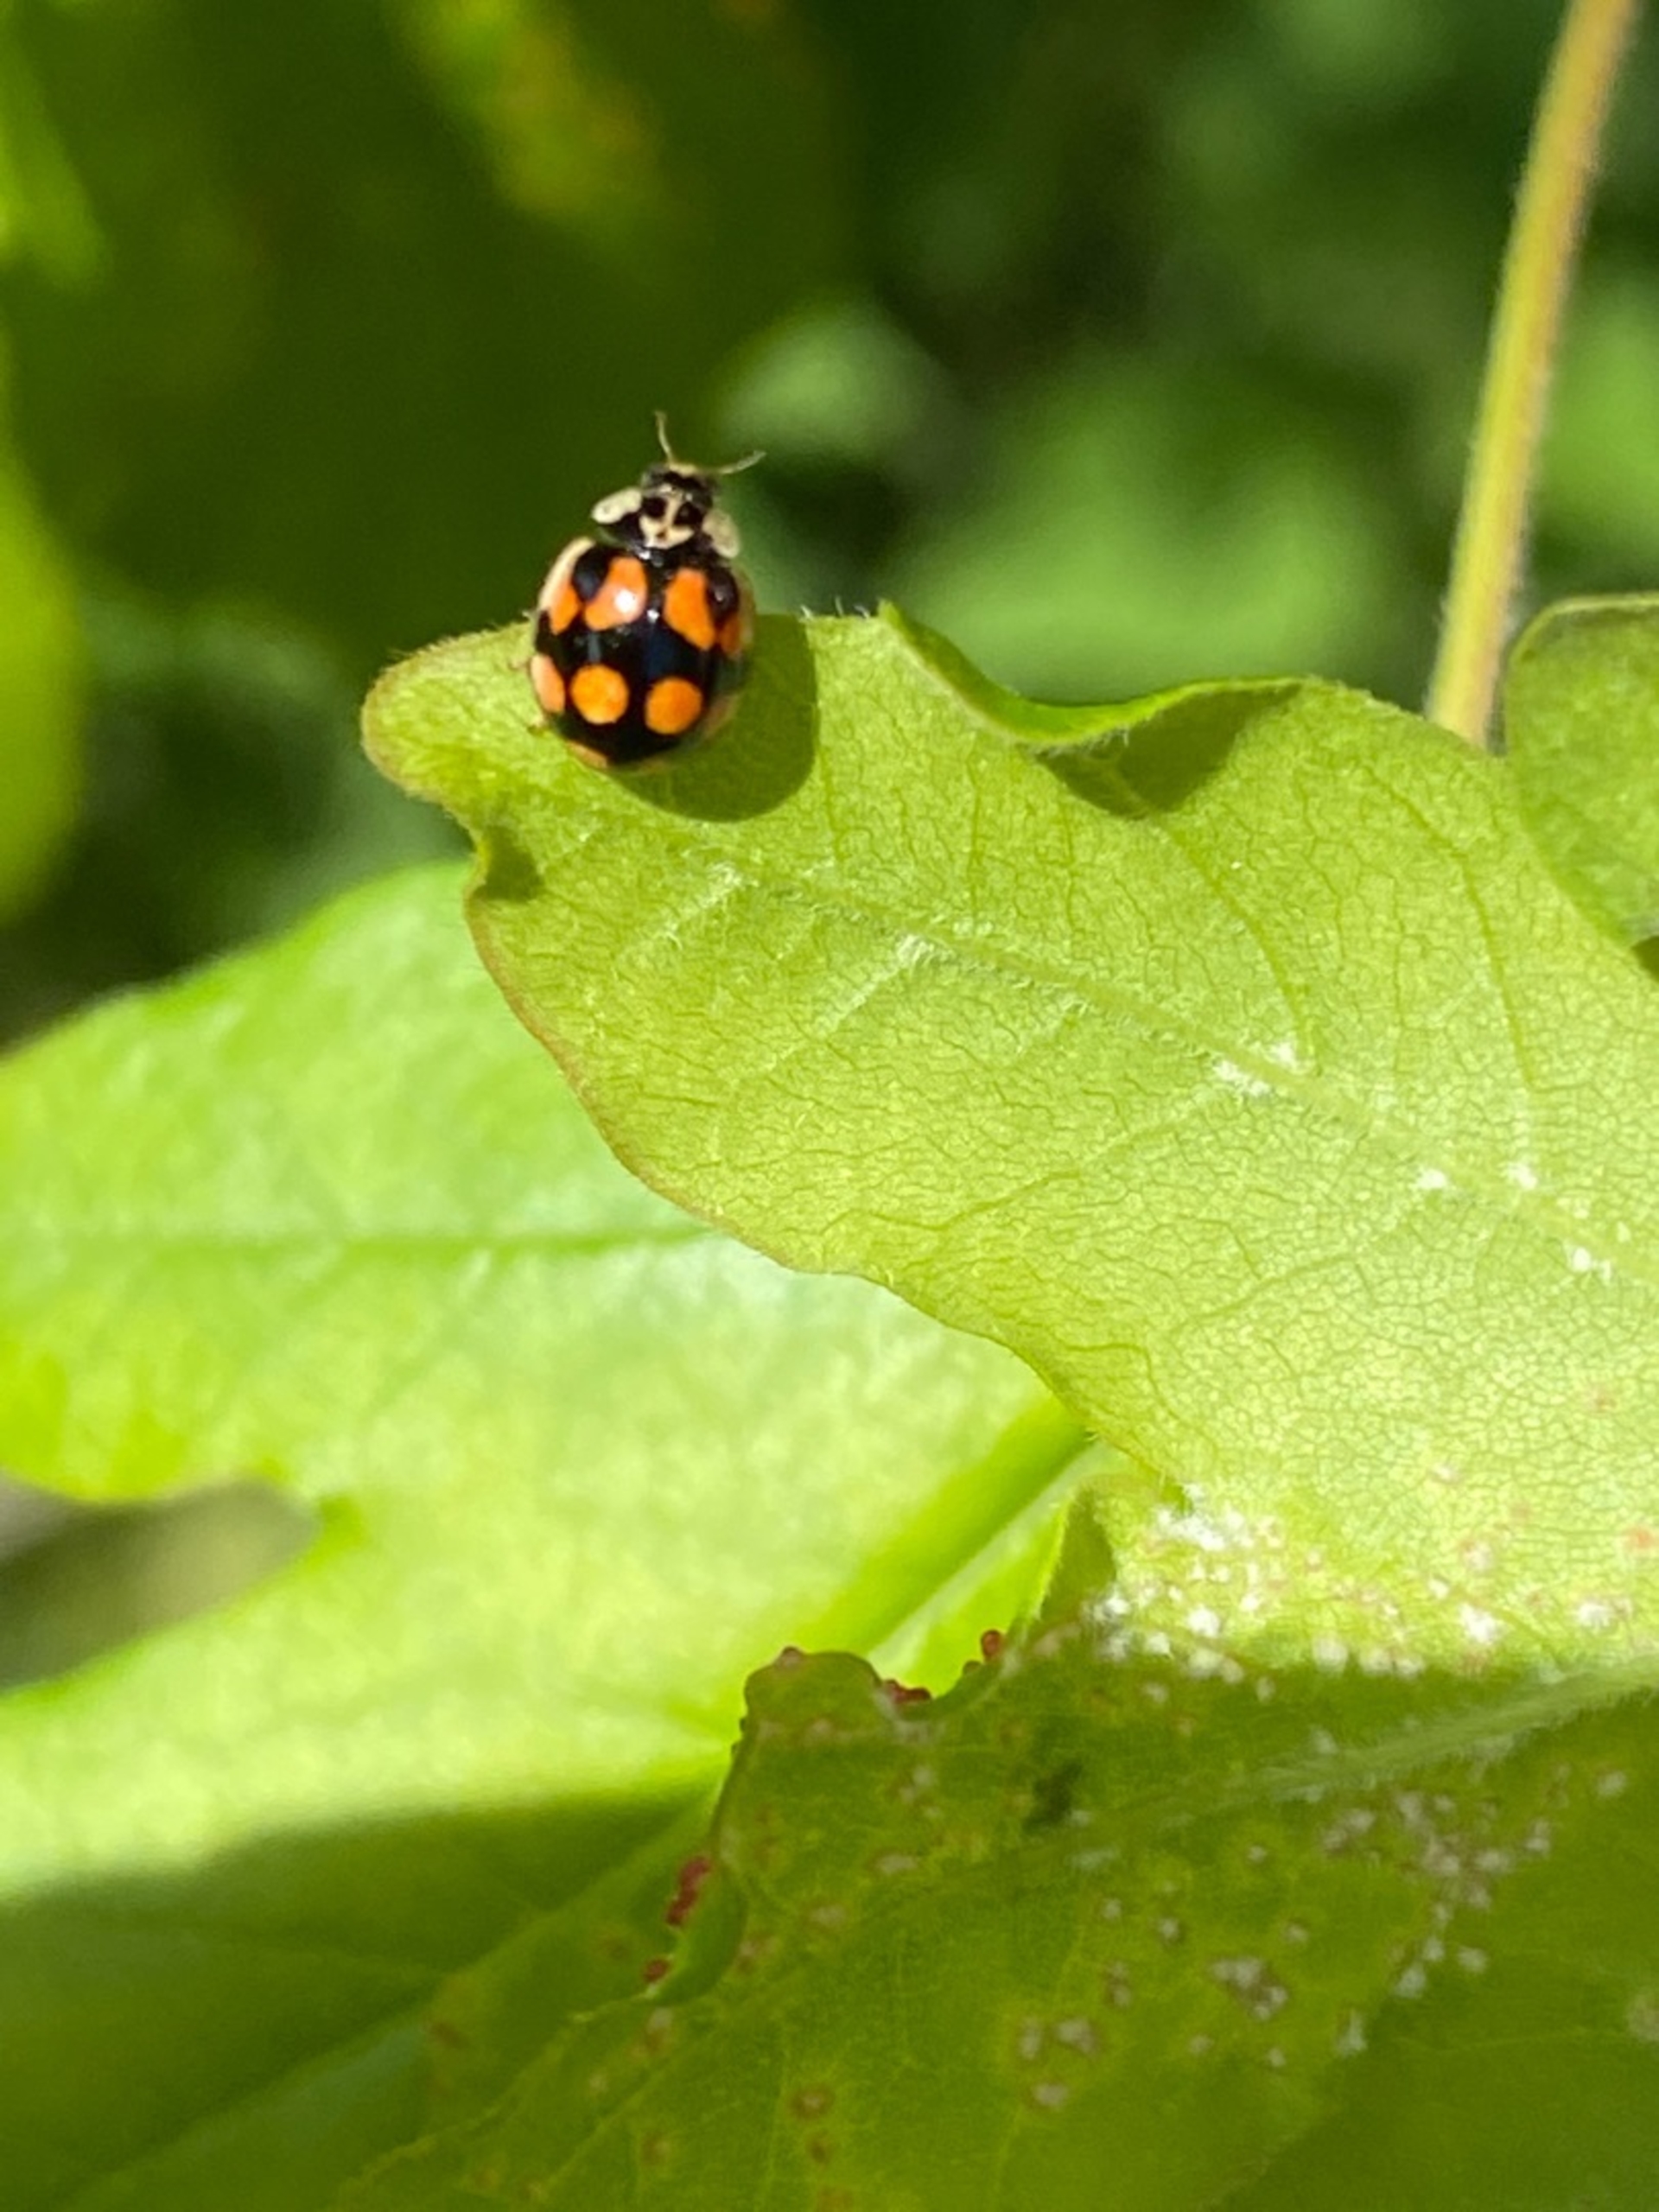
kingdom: Animalia
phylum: Arthropoda
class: Insecta
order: Coleoptera
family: Coccinellidae
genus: Adalia
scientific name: Adalia decempunctata
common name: Tiplettet mariehøne
